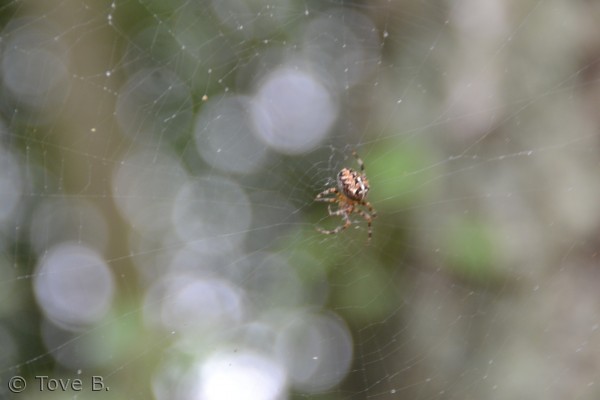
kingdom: Animalia
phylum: Arthropoda
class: Arachnida
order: Araneae
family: Araneidae
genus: Araneus
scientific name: Araneus diadematus
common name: Korsedderkop
